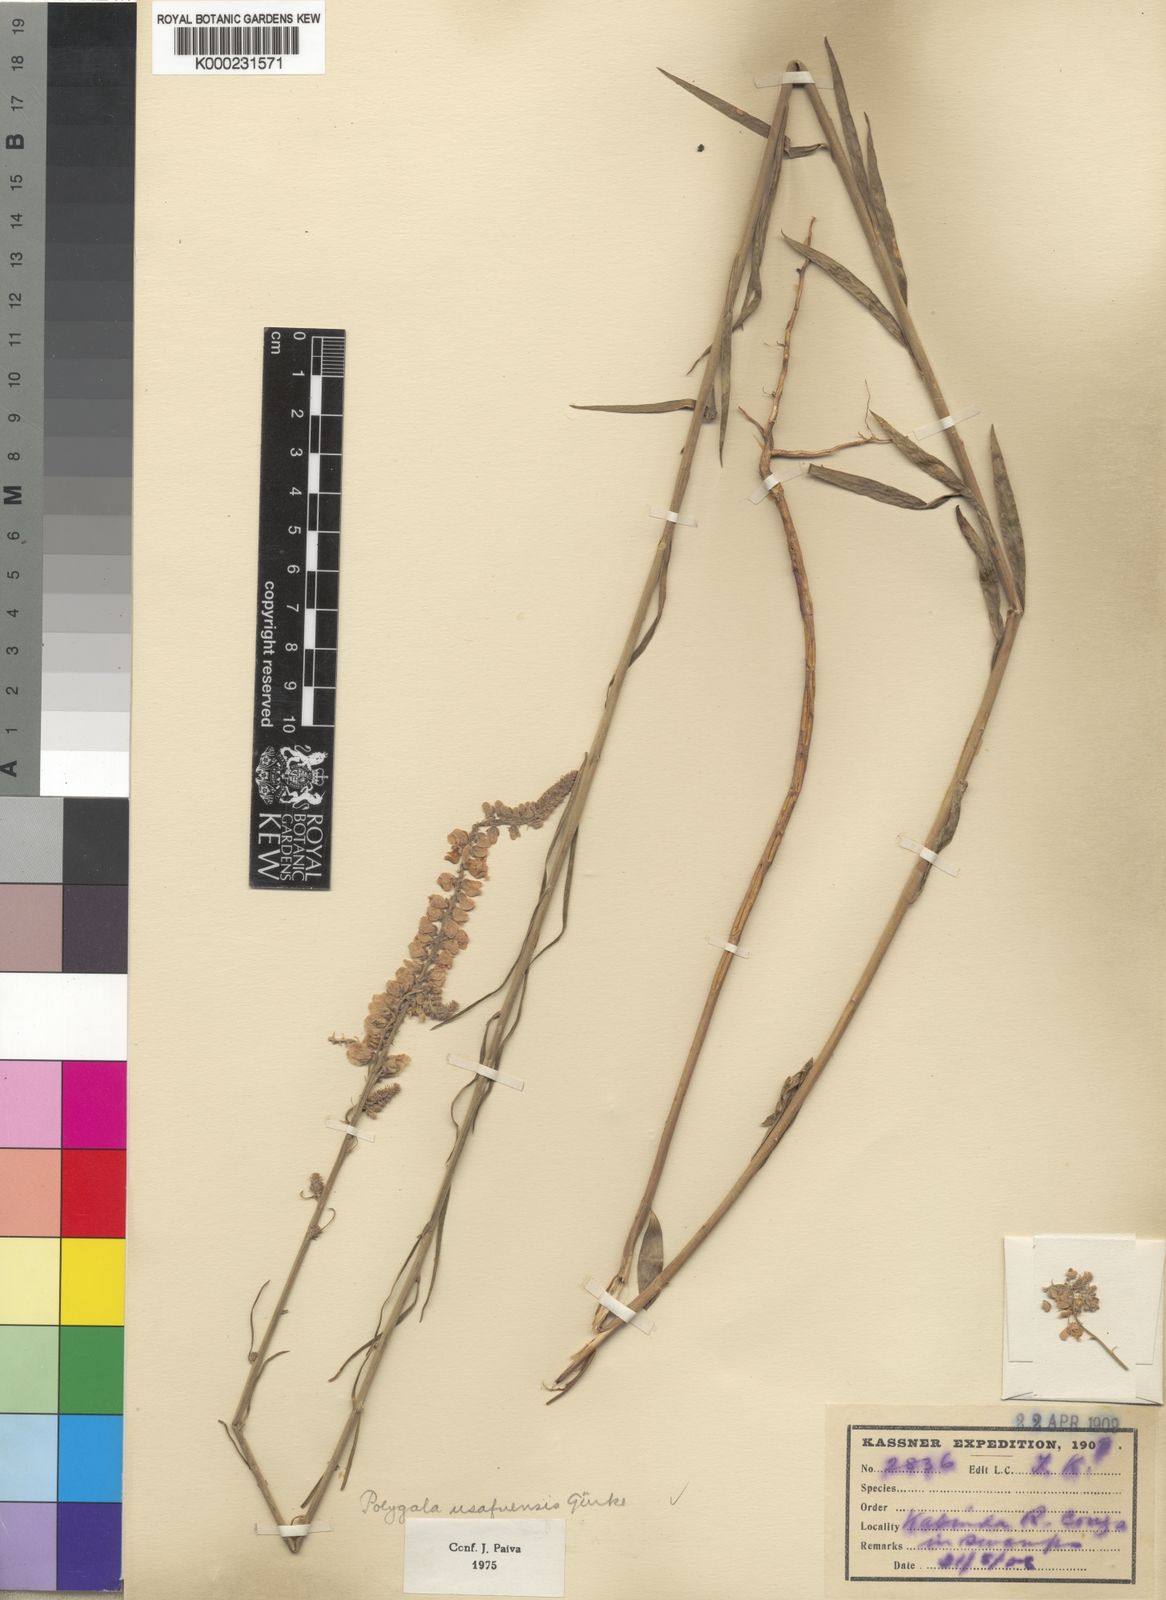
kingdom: Plantae
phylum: Tracheophyta
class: Magnoliopsida
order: Fabales
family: Polygalaceae
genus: Polygala
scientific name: Polygala
